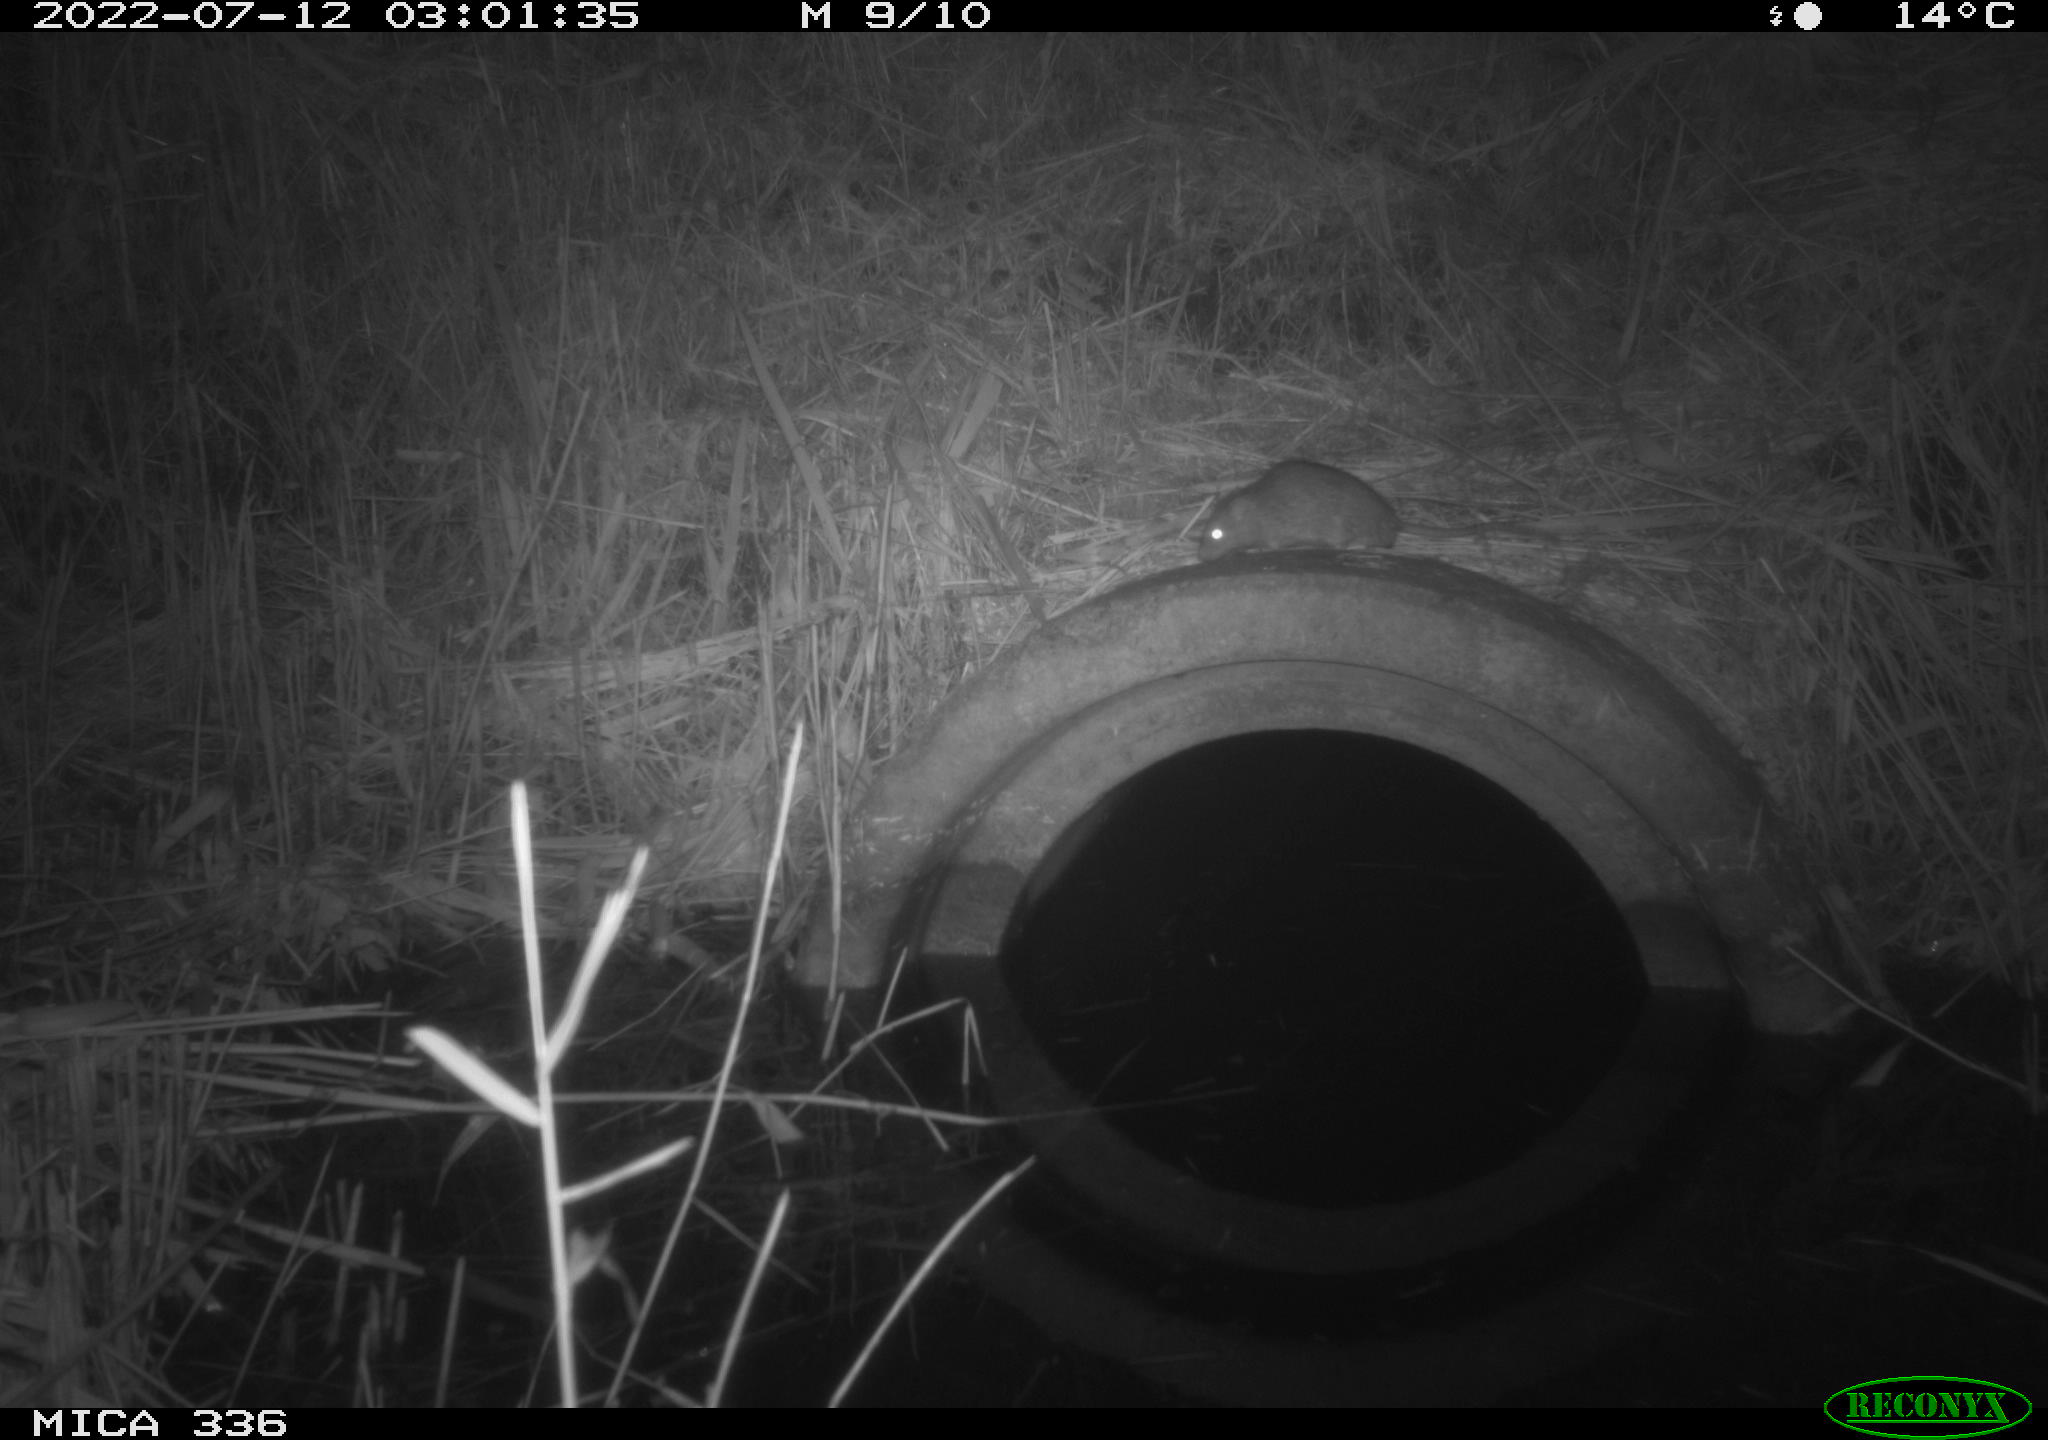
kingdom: Animalia
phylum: Chordata
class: Mammalia
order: Rodentia
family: Muridae
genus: Rattus
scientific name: Rattus norvegicus
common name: Brown rat
